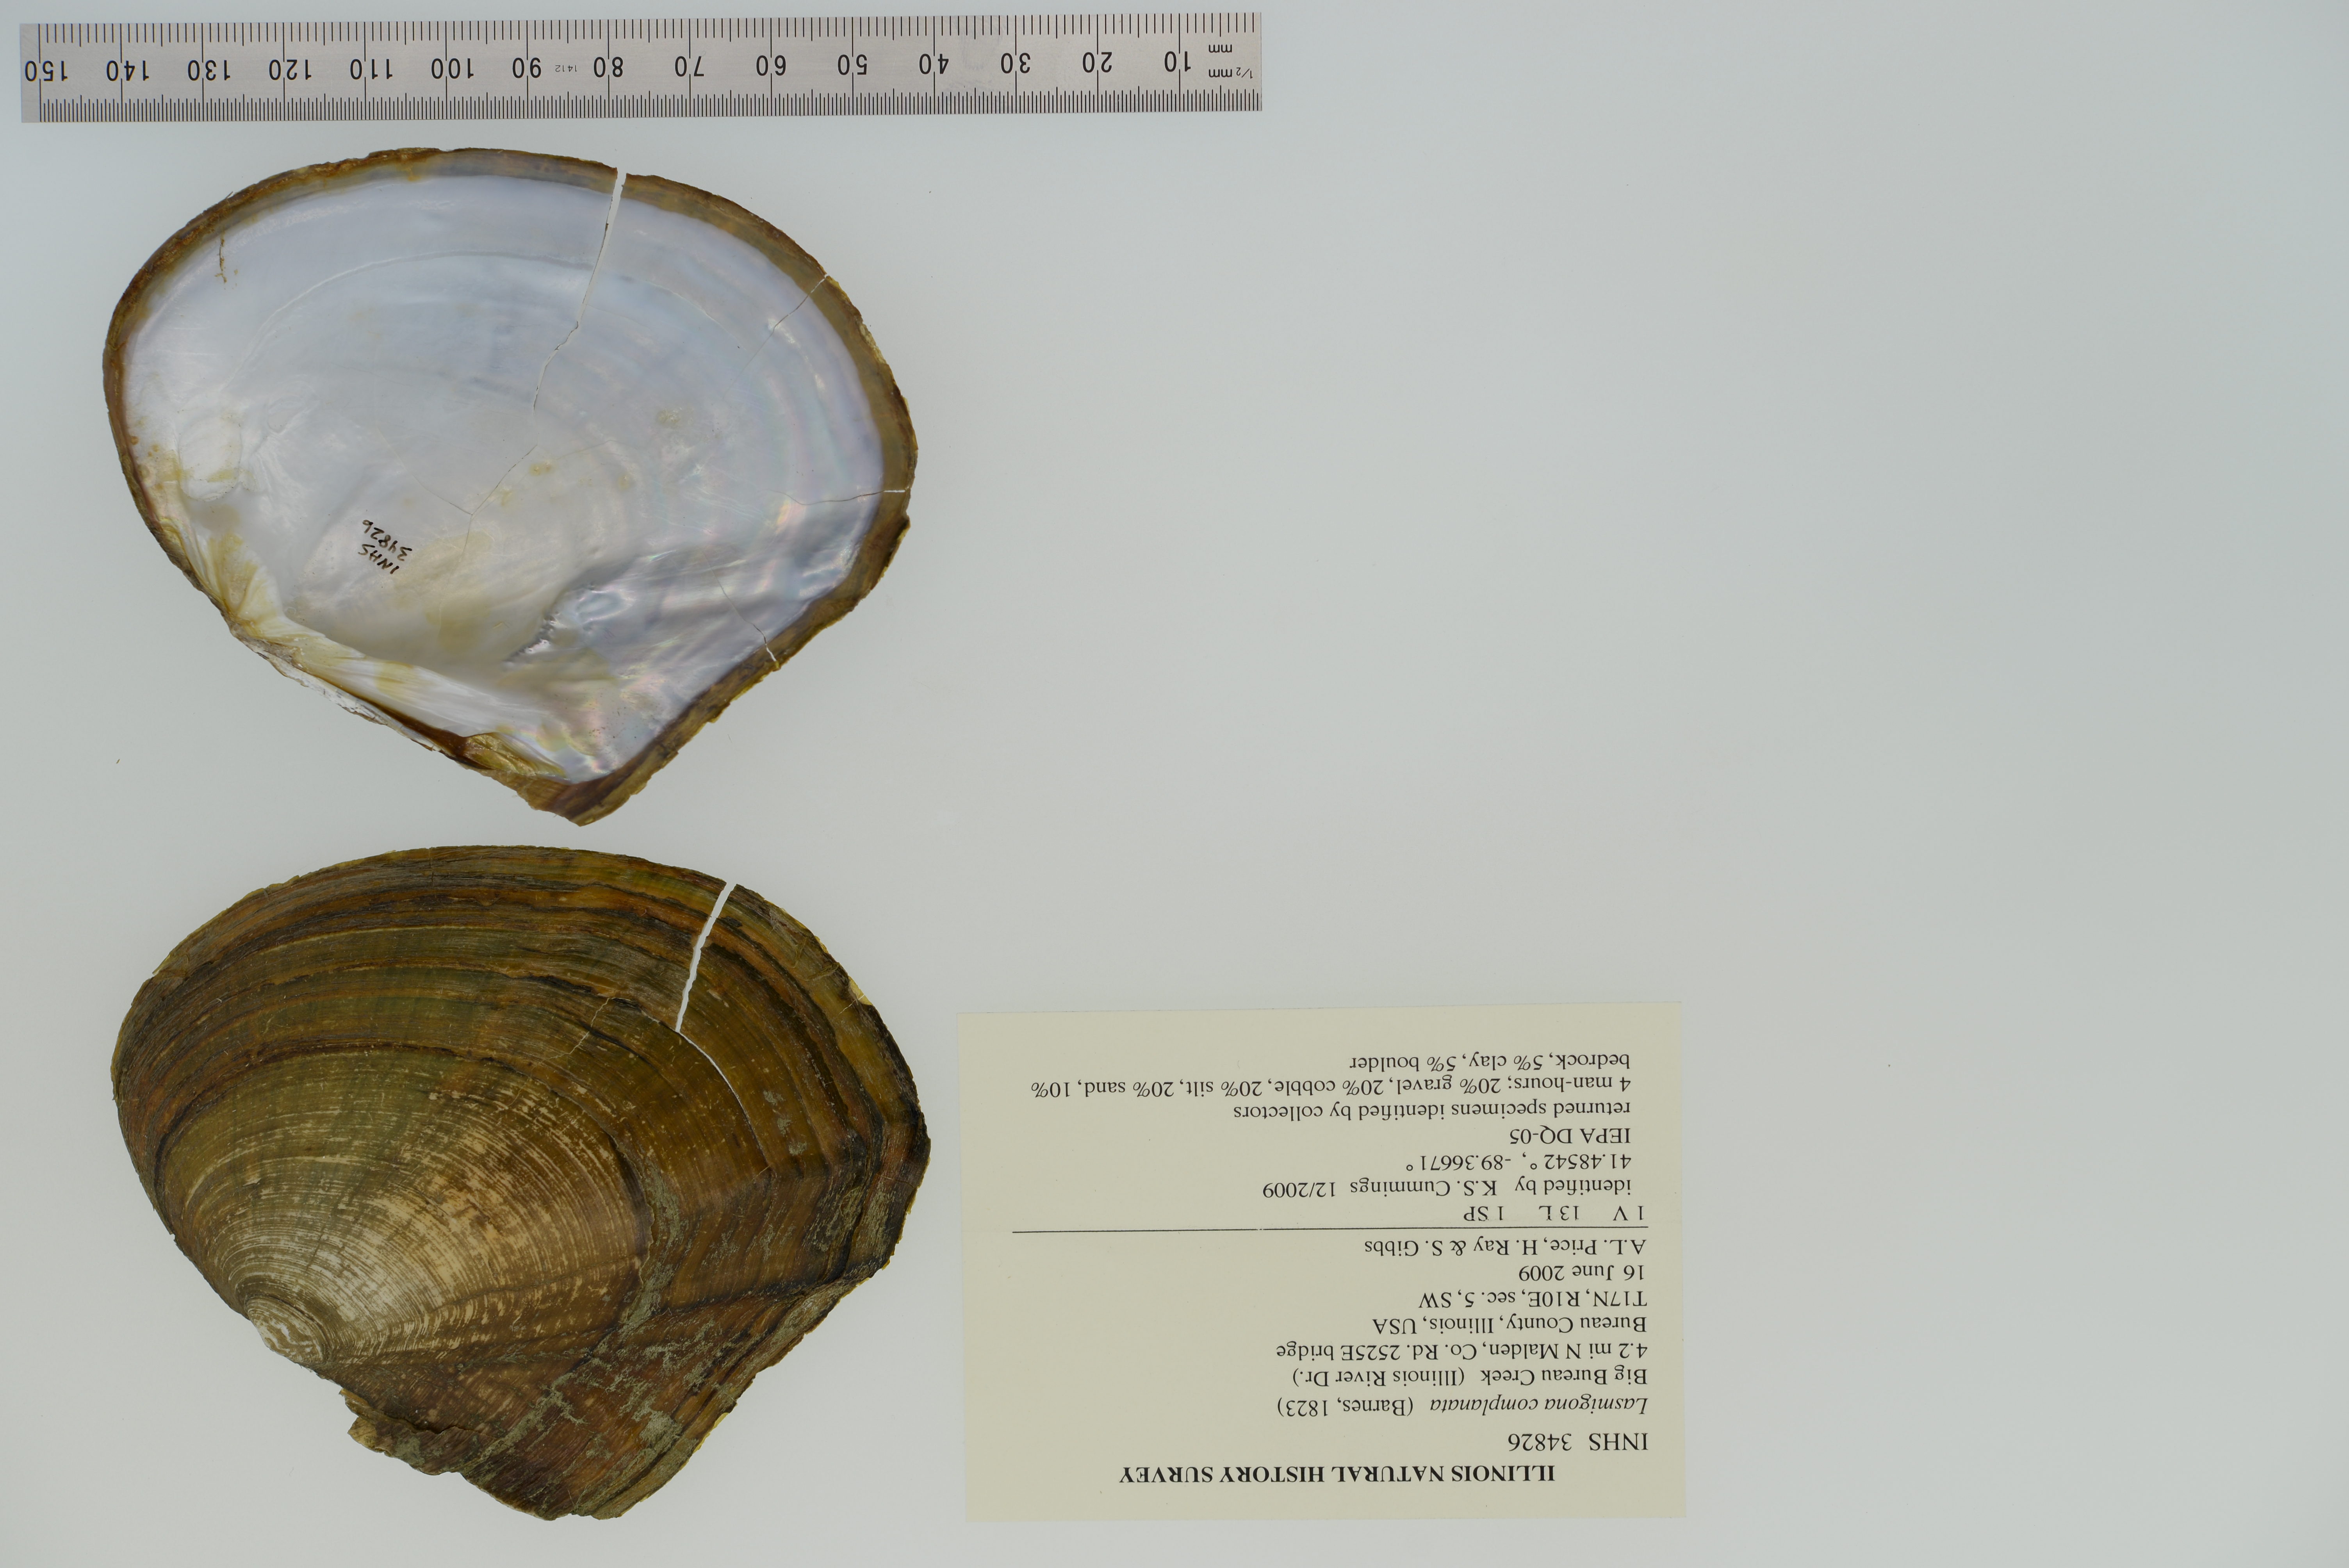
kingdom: Animalia
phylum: Mollusca
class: Bivalvia
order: Unionida
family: Unionidae
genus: Lasmigona
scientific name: Lasmigona complanata
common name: White heelsplitter
